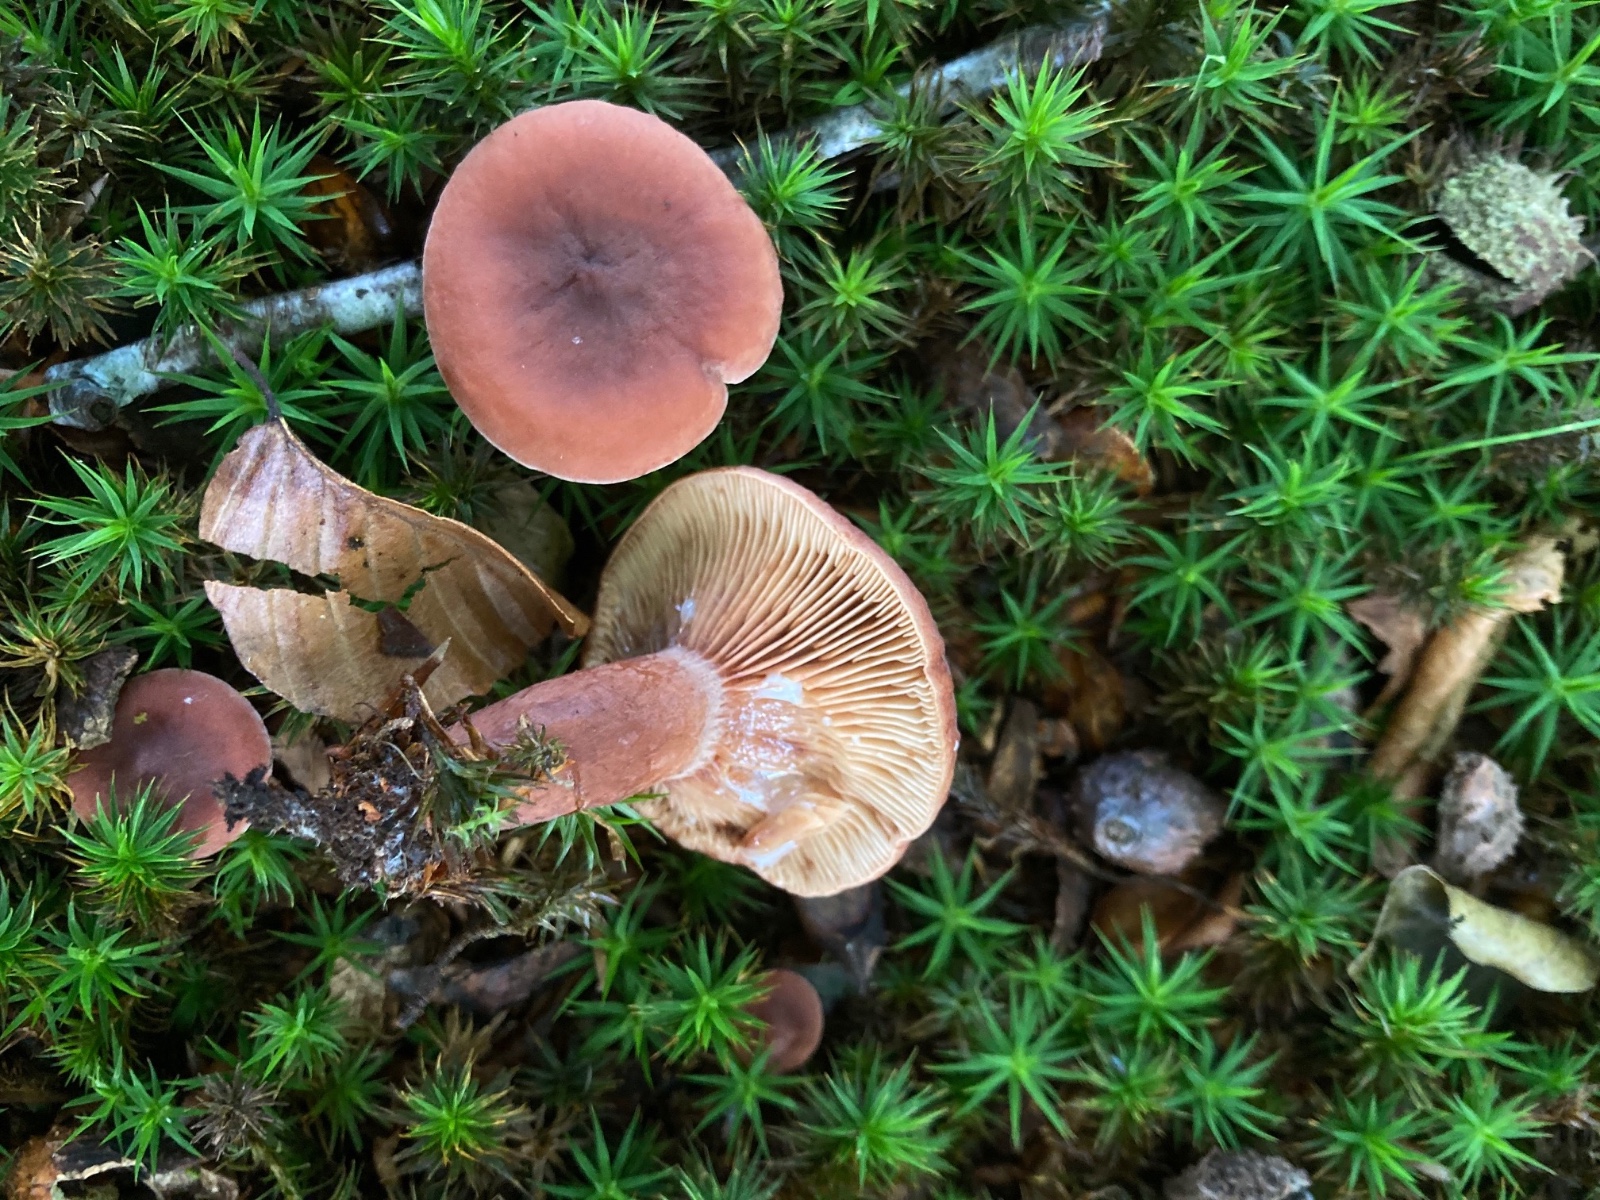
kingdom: Fungi
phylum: Basidiomycota
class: Agaricomycetes
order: Russulales
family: Russulaceae
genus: Lactarius
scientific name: Lactarius camphoratus
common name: kamfer-mælkehat
